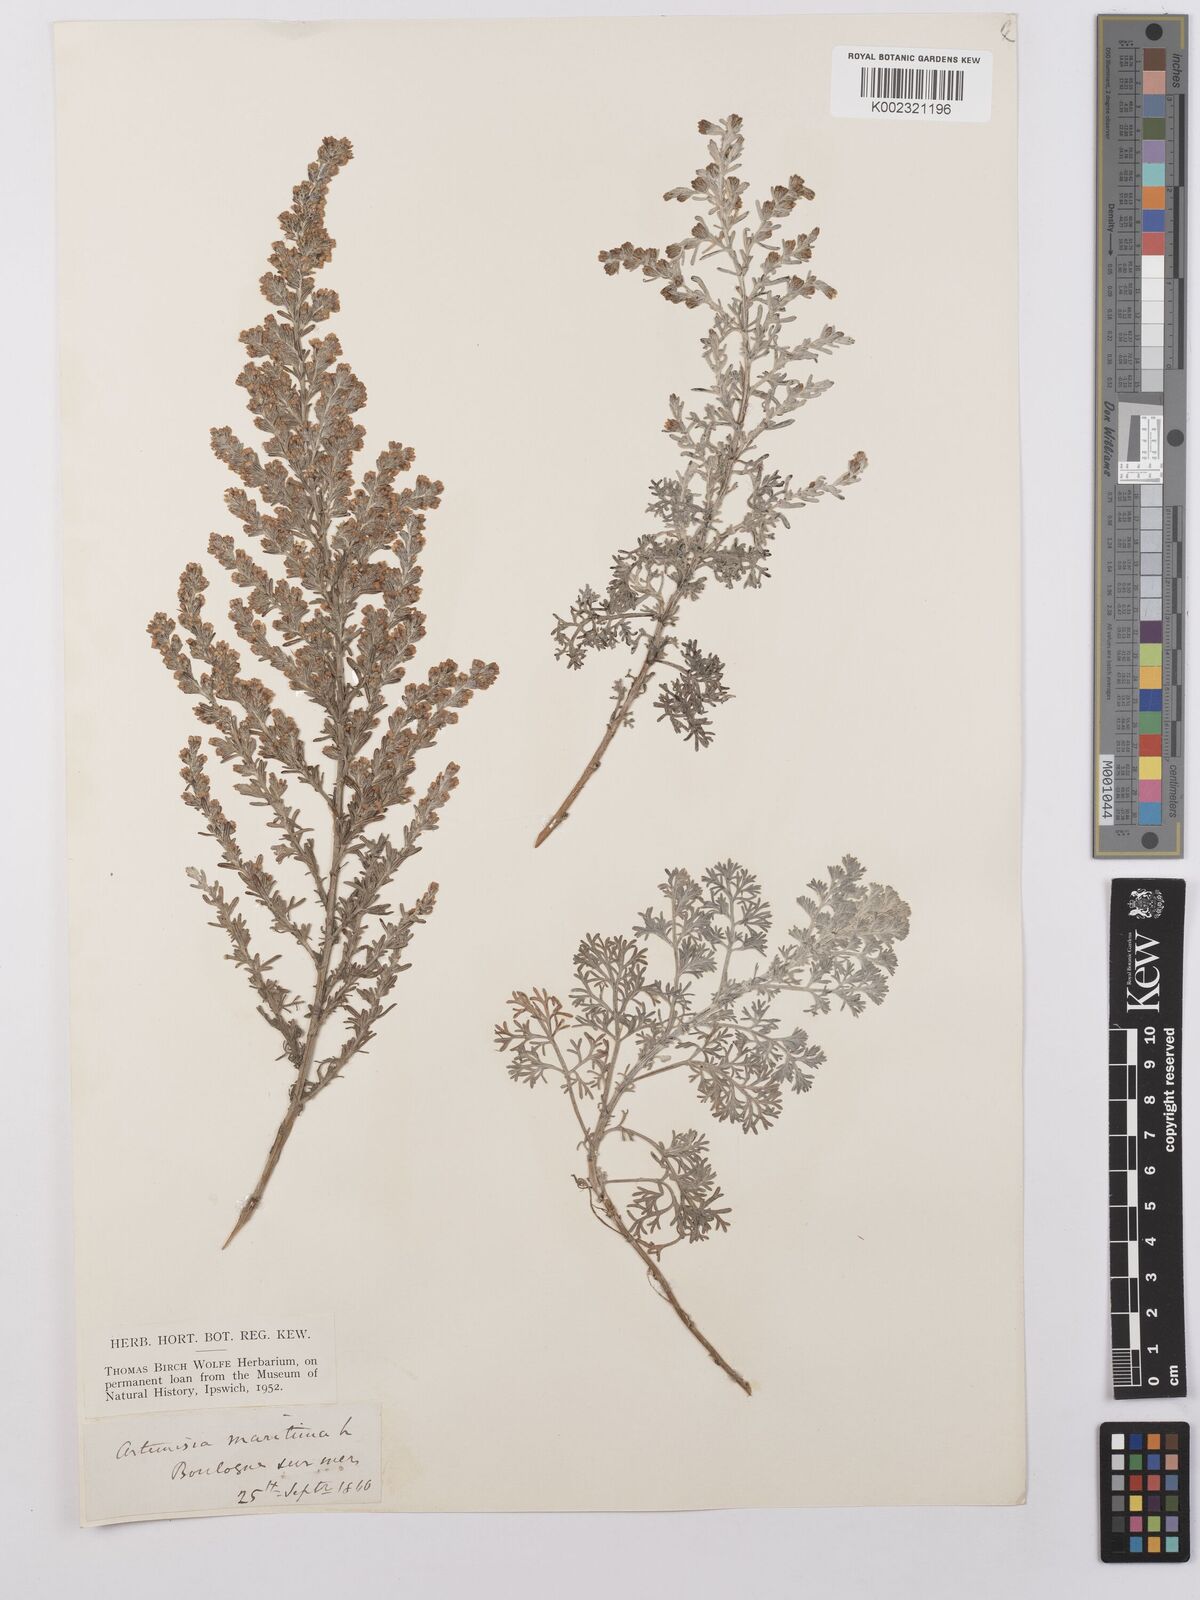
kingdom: Plantae
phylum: Tracheophyta
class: Magnoliopsida
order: Asterales
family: Asteraceae
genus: Artemisia
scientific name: Artemisia maritima
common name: Wormseed
